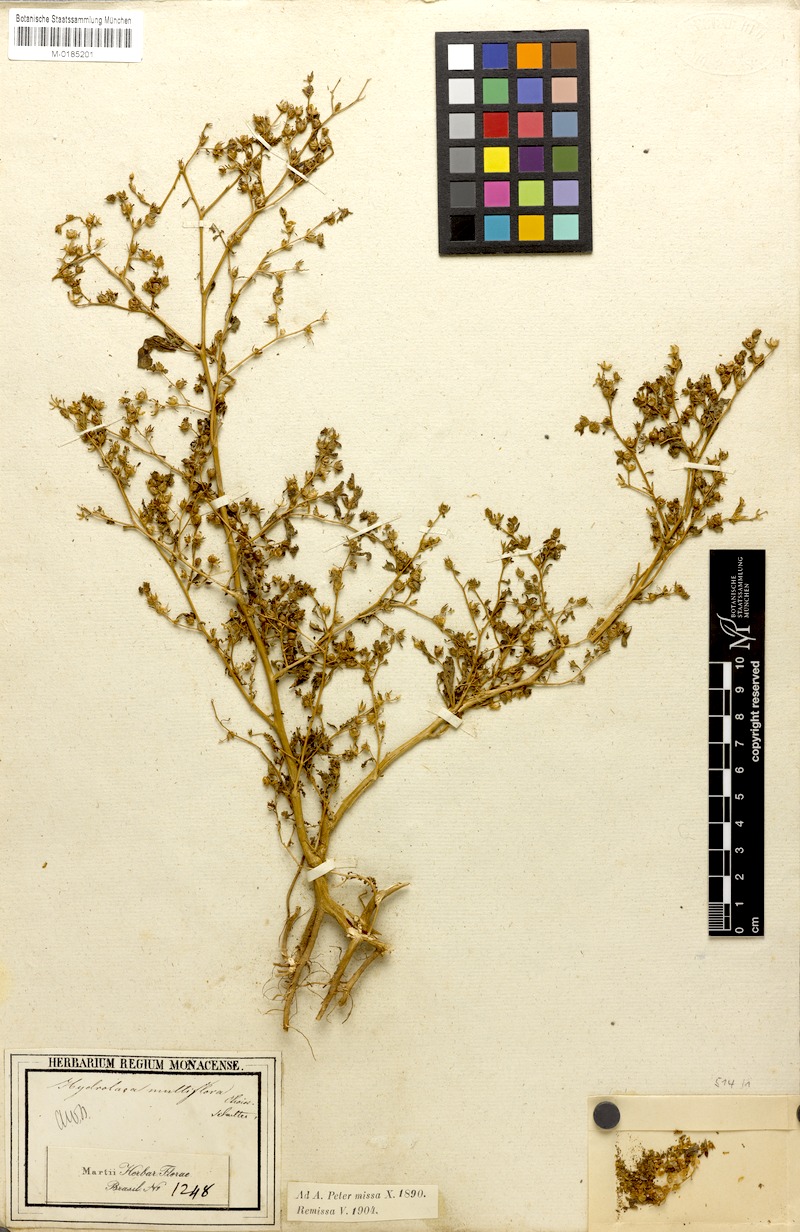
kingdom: Plantae
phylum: Tracheophyta
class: Magnoliopsida
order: Solanales
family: Hydroleaceae
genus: Hydrolea
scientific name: Hydrolea elatior
